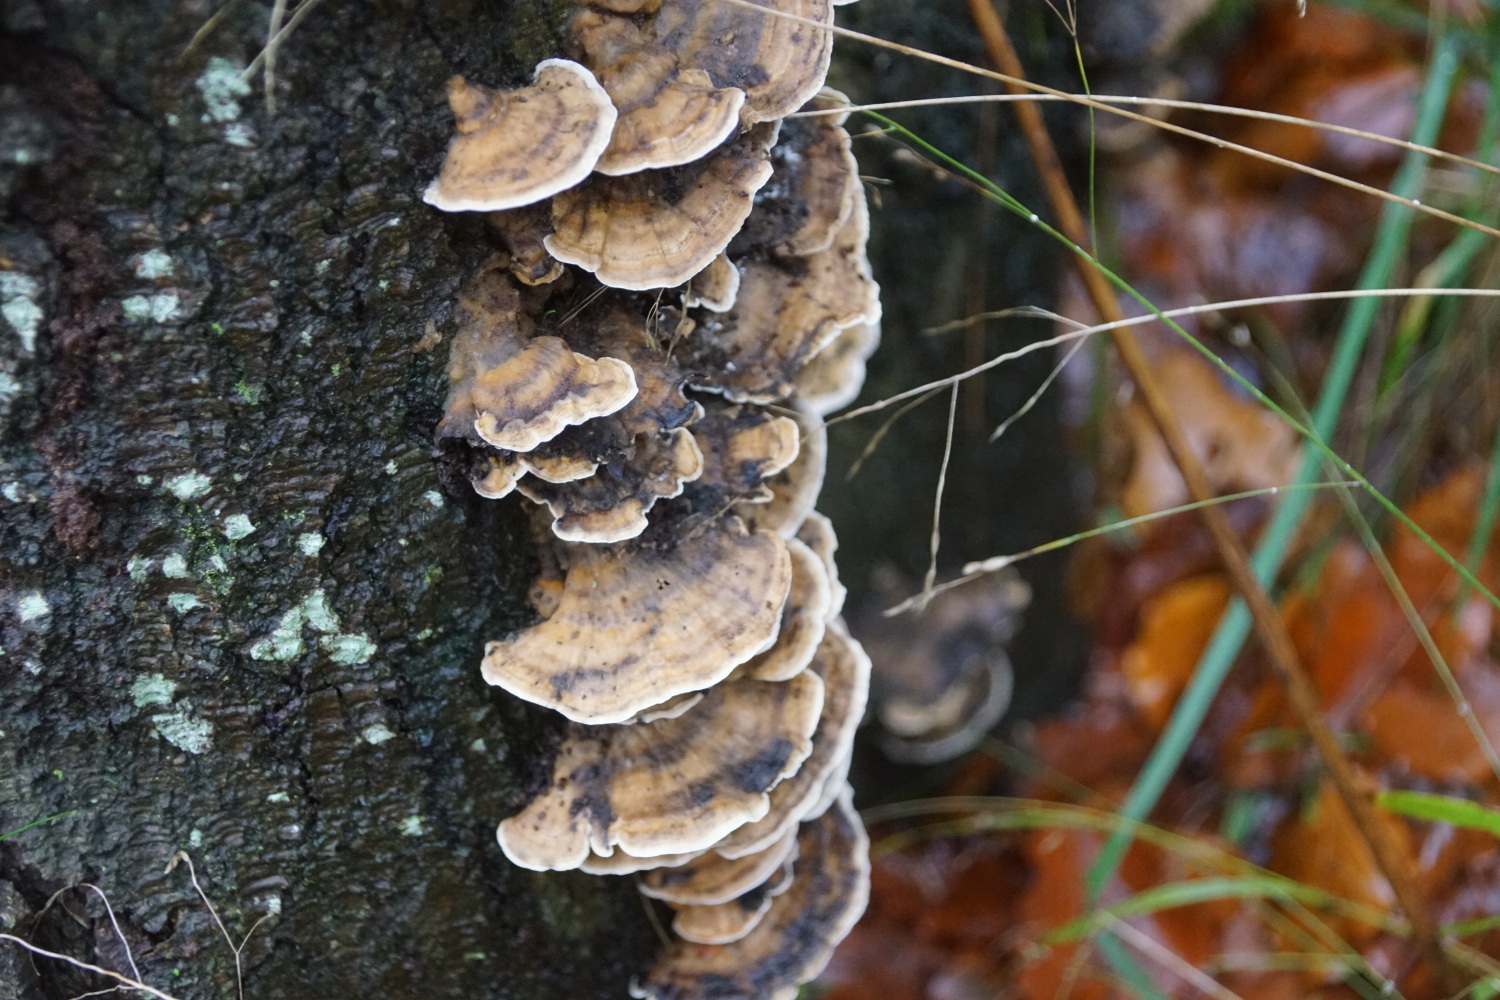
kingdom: Fungi
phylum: Basidiomycota
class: Agaricomycetes
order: Polyporales
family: Phanerochaetaceae
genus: Bjerkandera
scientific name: Bjerkandera adusta
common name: sveden sodporesvamp
